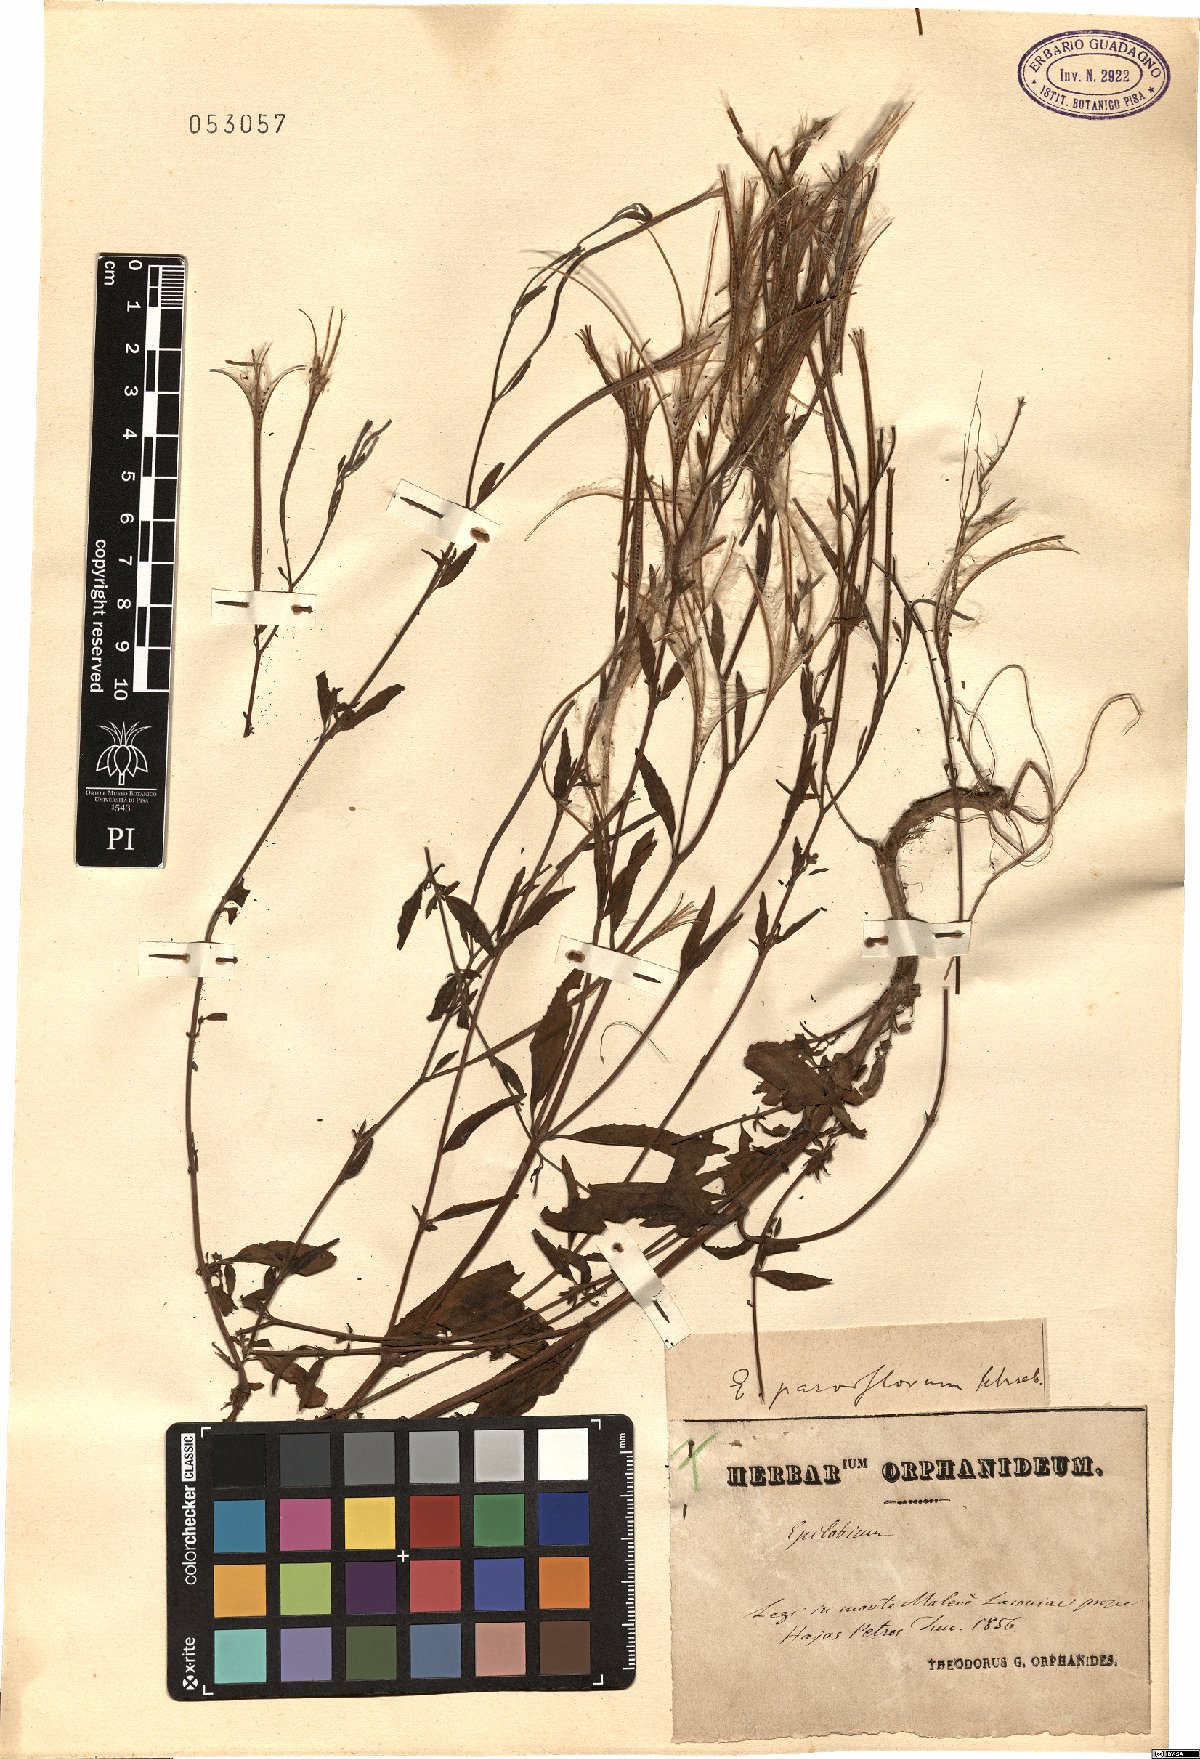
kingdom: Plantae
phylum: Tracheophyta
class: Magnoliopsida
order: Myrtales
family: Onagraceae
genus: Epilobium
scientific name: Epilobium parviflorum
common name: Hoary willowherb
